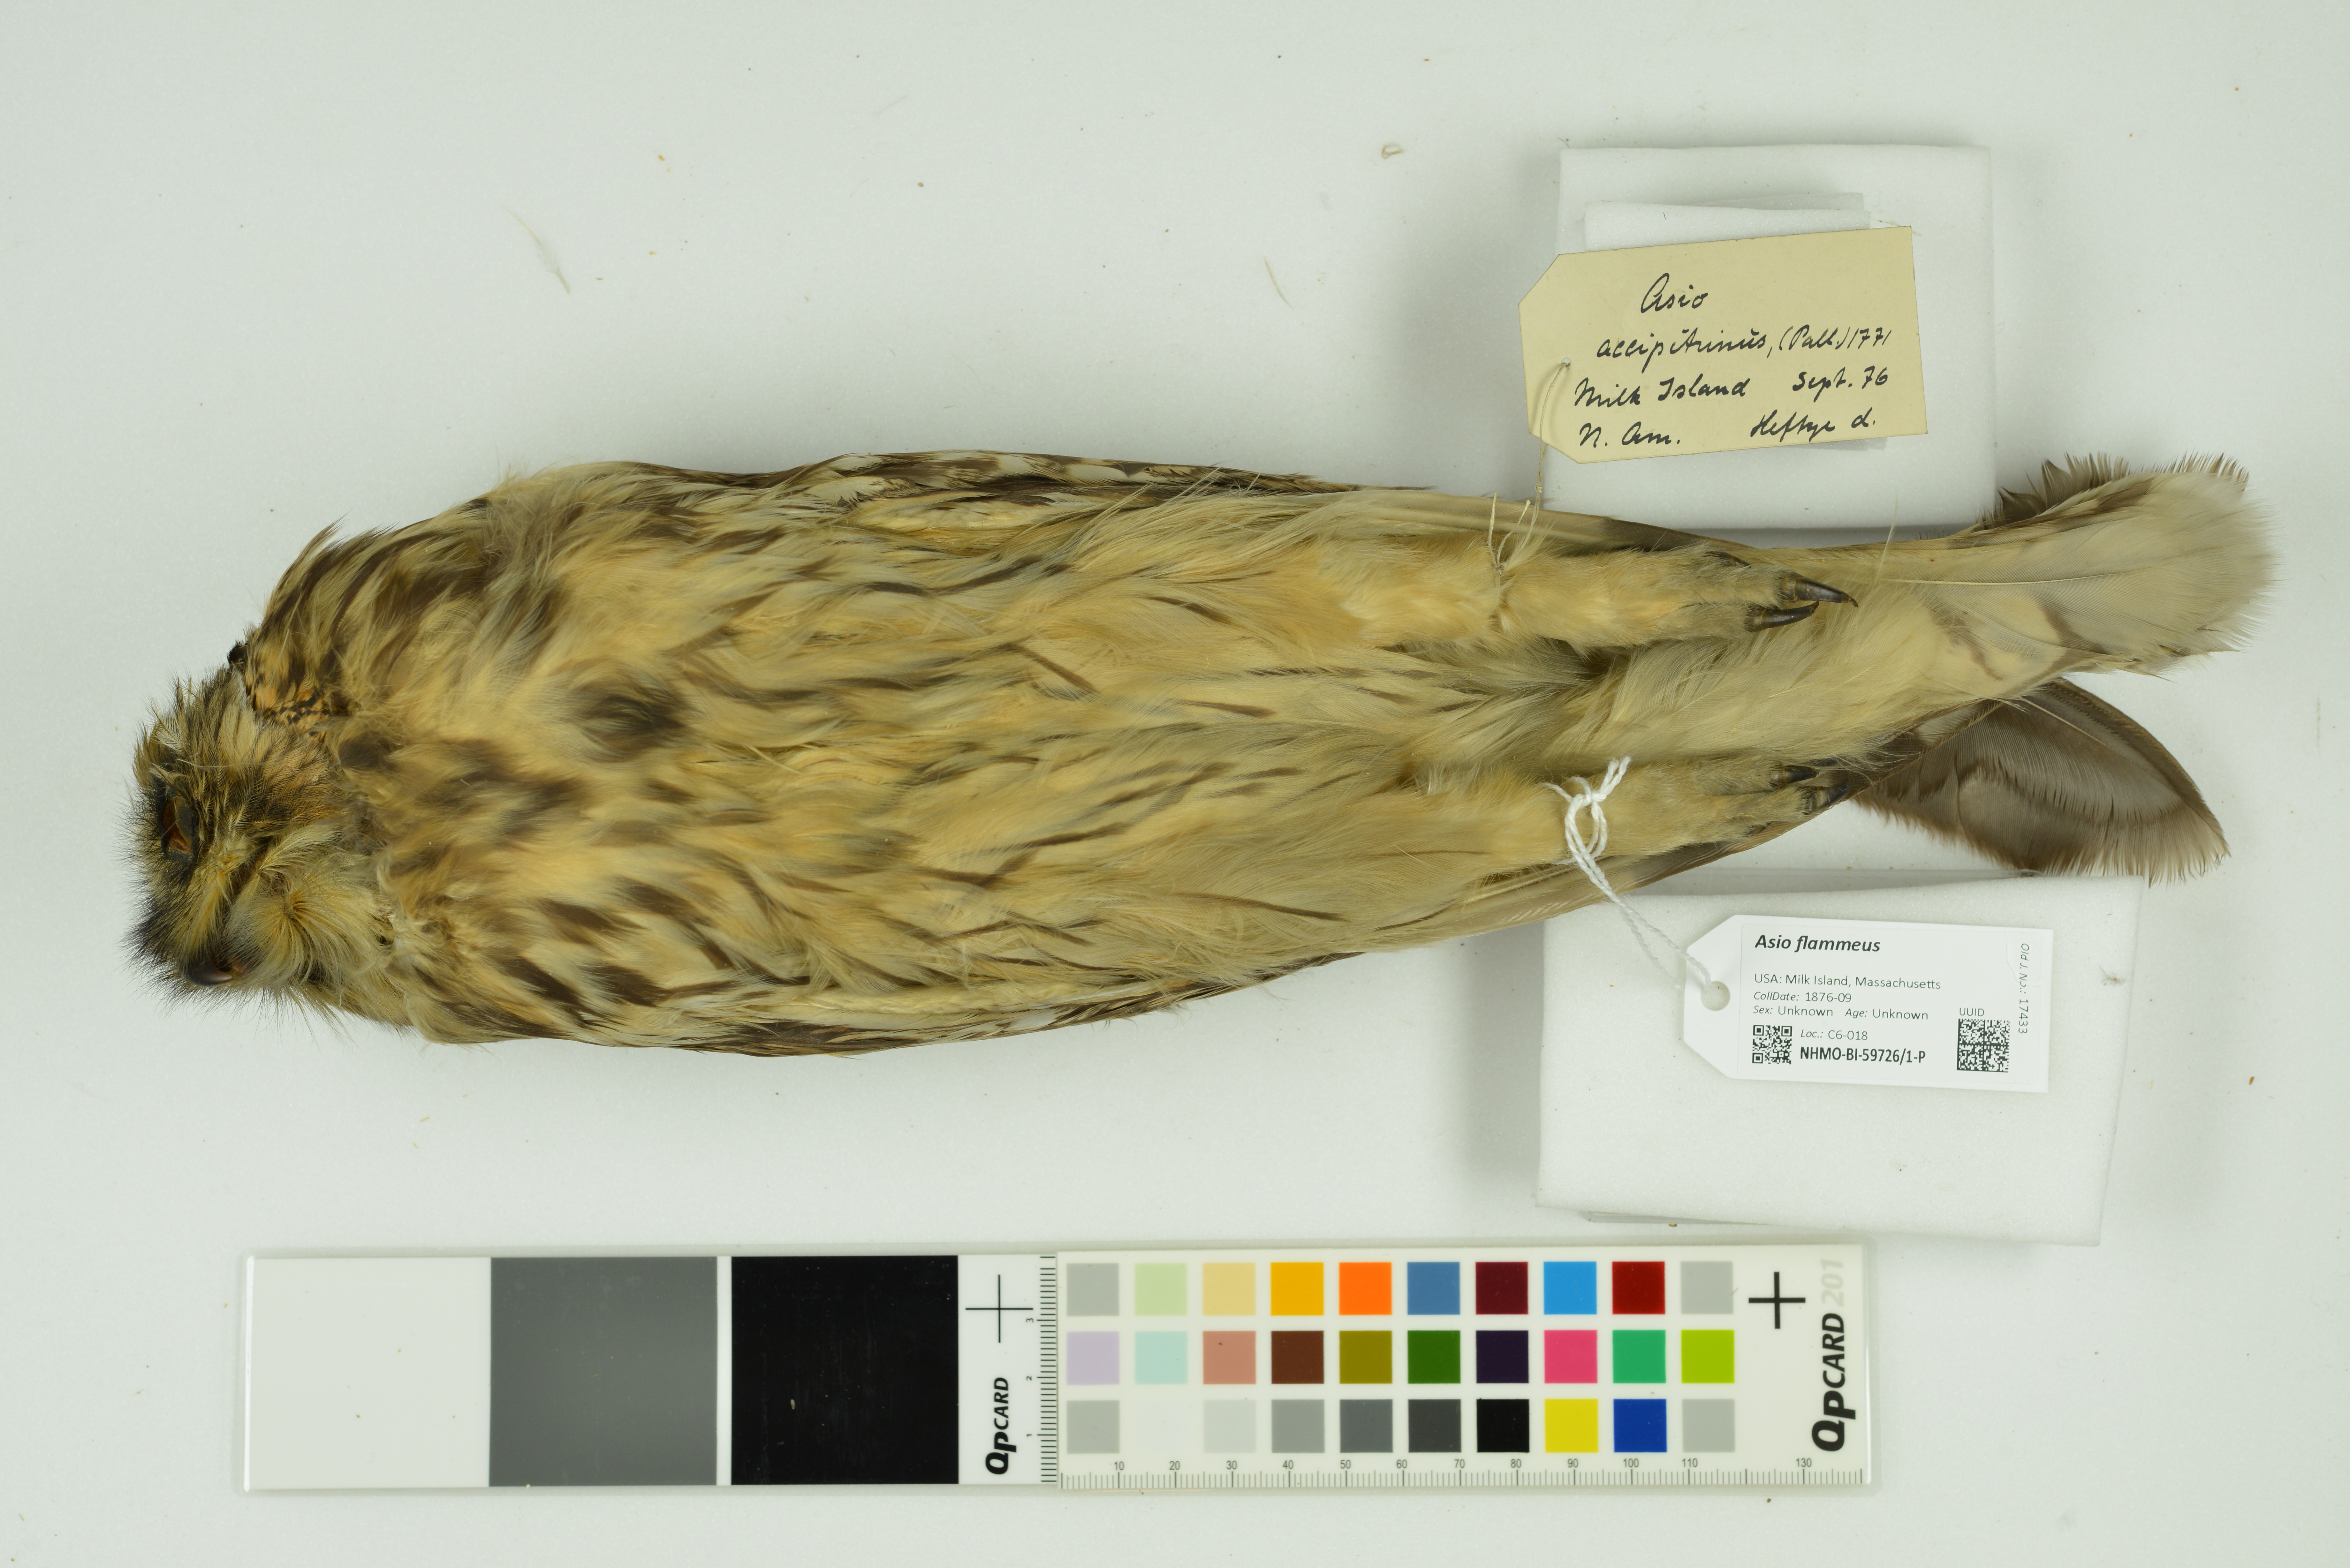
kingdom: Animalia
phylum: Chordata
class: Aves
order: Strigiformes
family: Strigidae
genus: Asio
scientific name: Asio flammeus
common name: Short-eared owl
